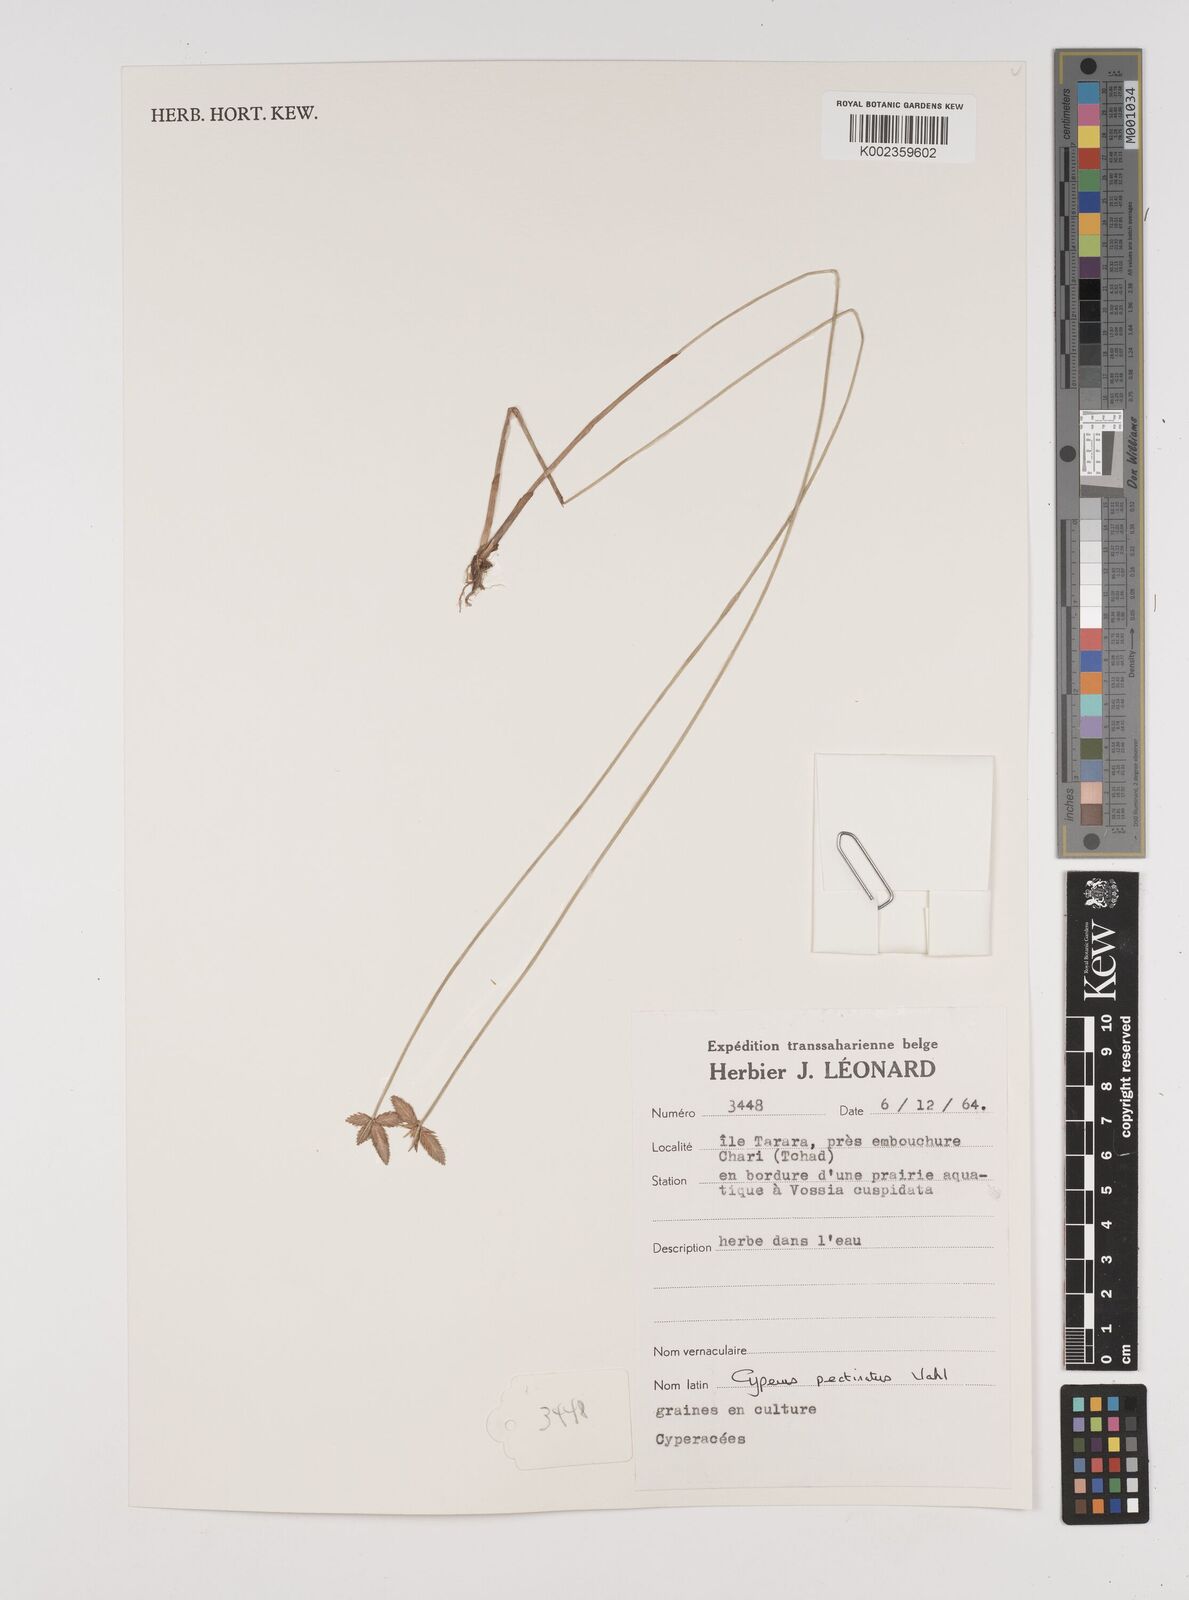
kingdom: Plantae
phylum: Tracheophyta
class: Liliopsida
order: Poales
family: Cyperaceae
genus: Cyperus
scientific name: Cyperus pectinatus
